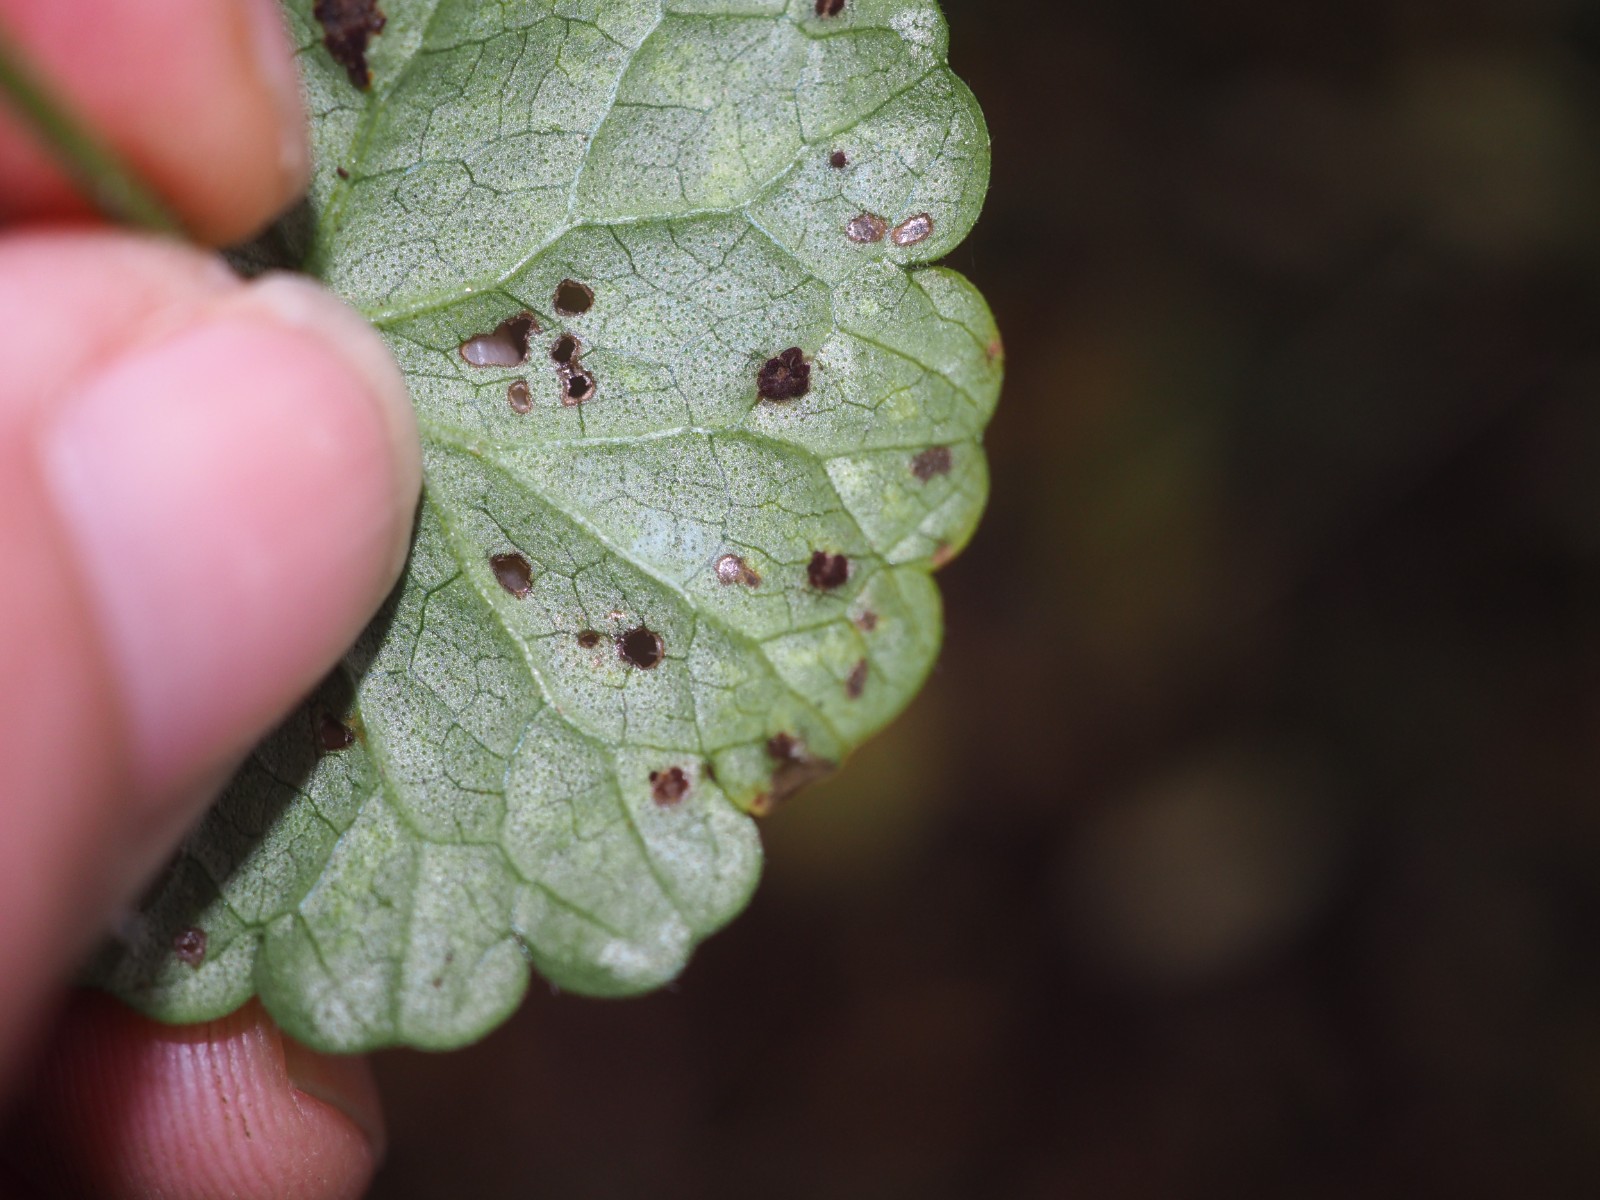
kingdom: Fungi
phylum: Basidiomycota
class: Pucciniomycetes
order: Pucciniales
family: Pucciniaceae
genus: Puccinia
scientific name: Puccinia glechomatis
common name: Ground ivy rust
